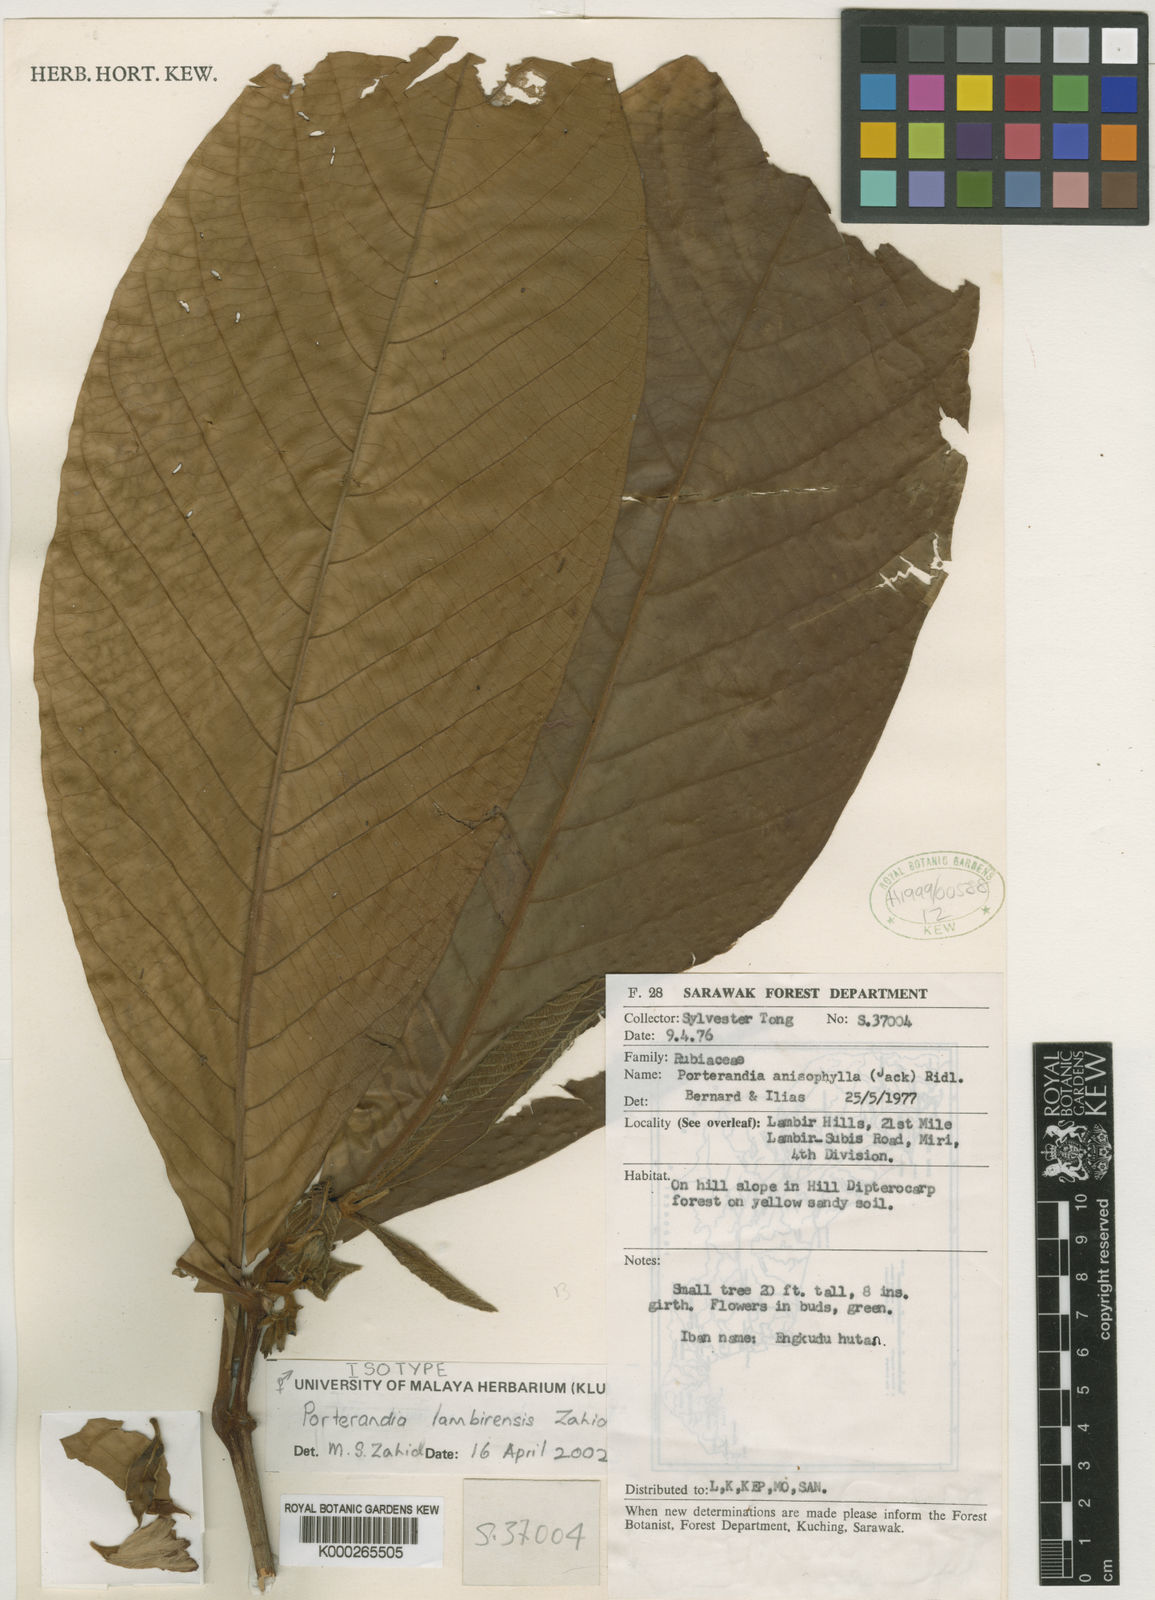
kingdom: Plantae
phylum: Tracheophyta
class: Magnoliopsida
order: Gentianales
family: Rubiaceae
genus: Porterandia
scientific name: Porterandia lambirensis
